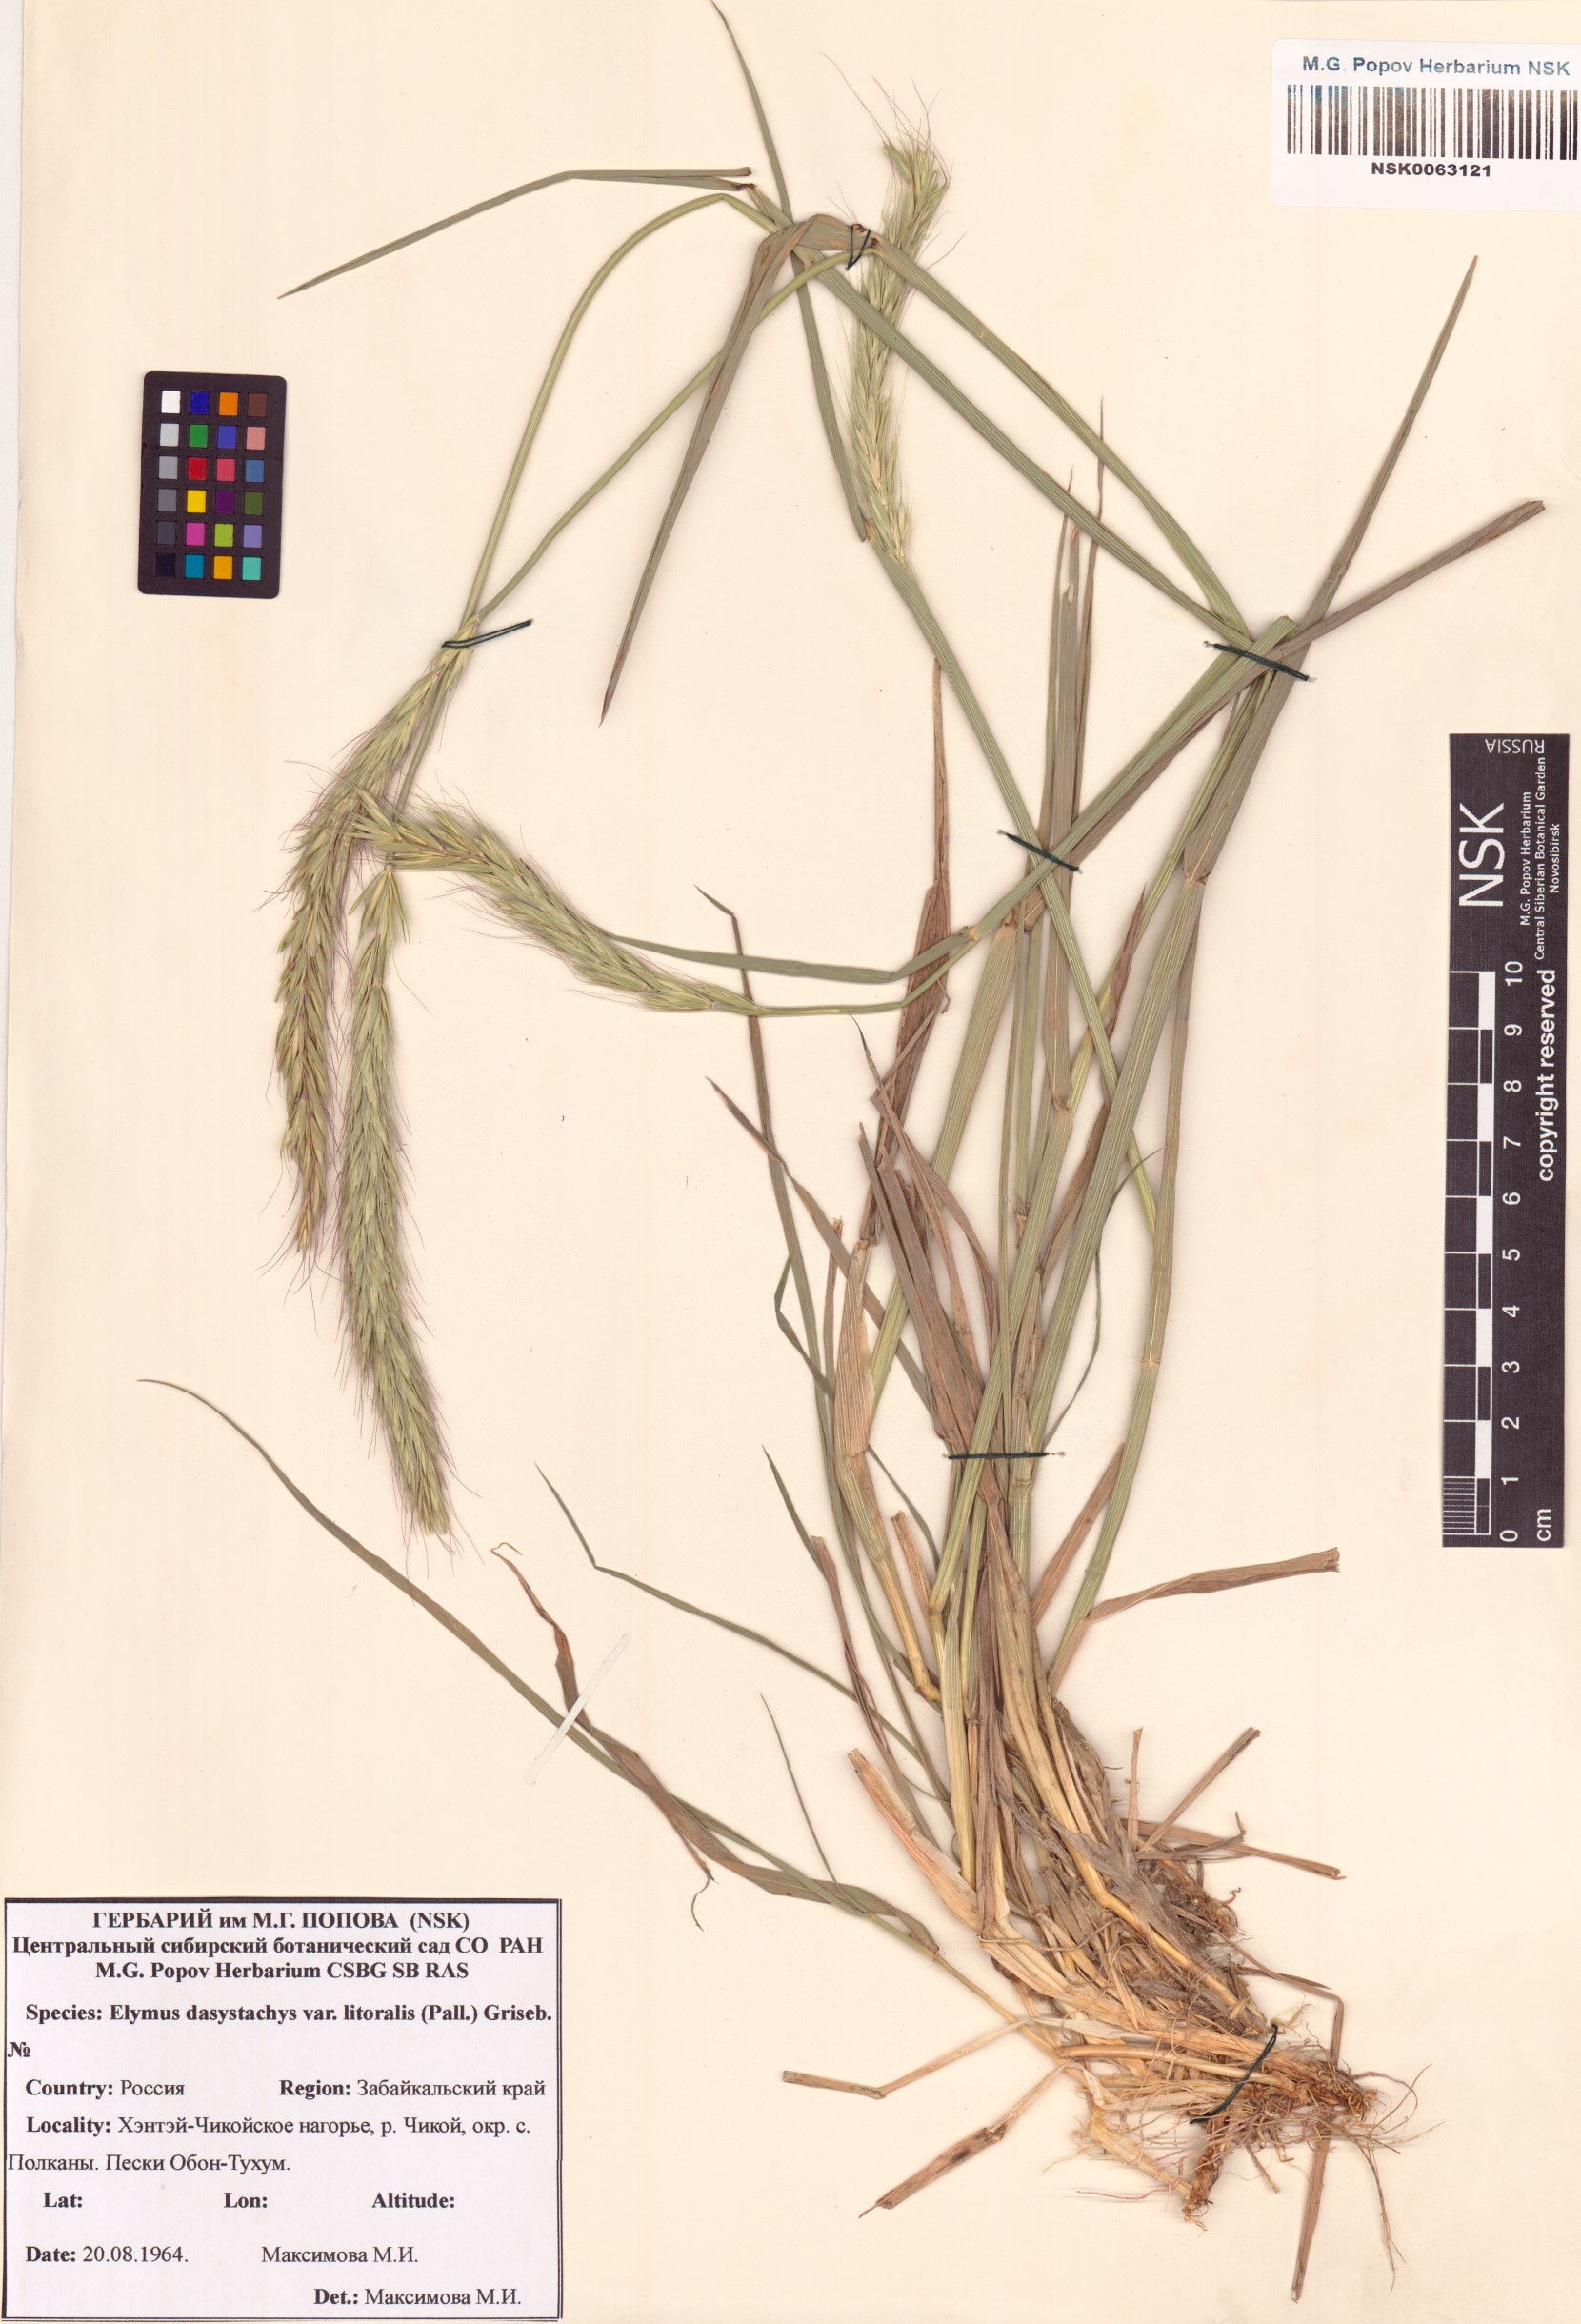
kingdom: Plantae
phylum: Tracheophyta
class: Liliopsida
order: Poales
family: Poaceae
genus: Leymus
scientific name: Leymus secalinus
